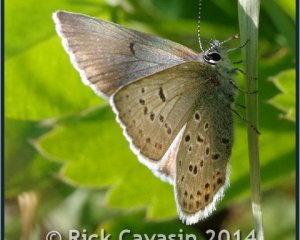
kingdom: Animalia
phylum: Arthropoda
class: Insecta
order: Lepidoptera
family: Lycaenidae
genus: Plebejus
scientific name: Plebejus saepiolus
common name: Greenish Blue
